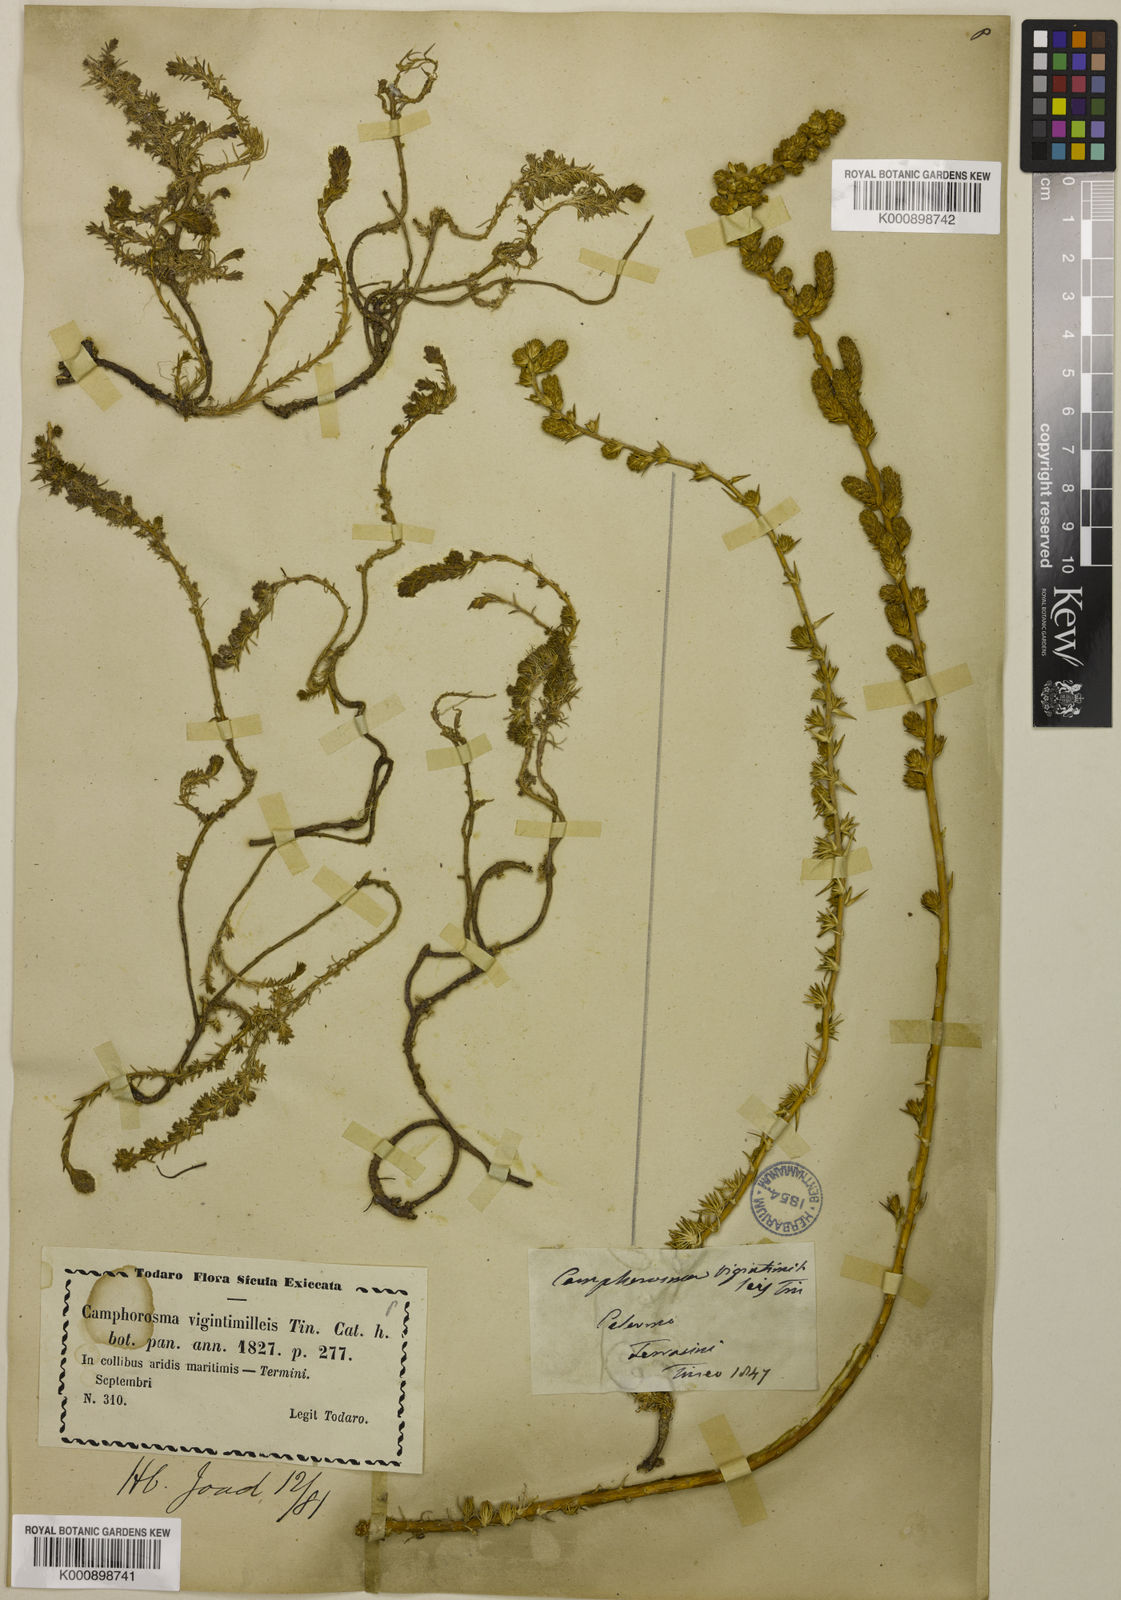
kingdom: Plantae
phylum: Tracheophyta
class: Magnoliopsida
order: Caryophyllales
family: Amaranthaceae
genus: Camphorosma
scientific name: Camphorosma monspeliaca
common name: Camphorfume
